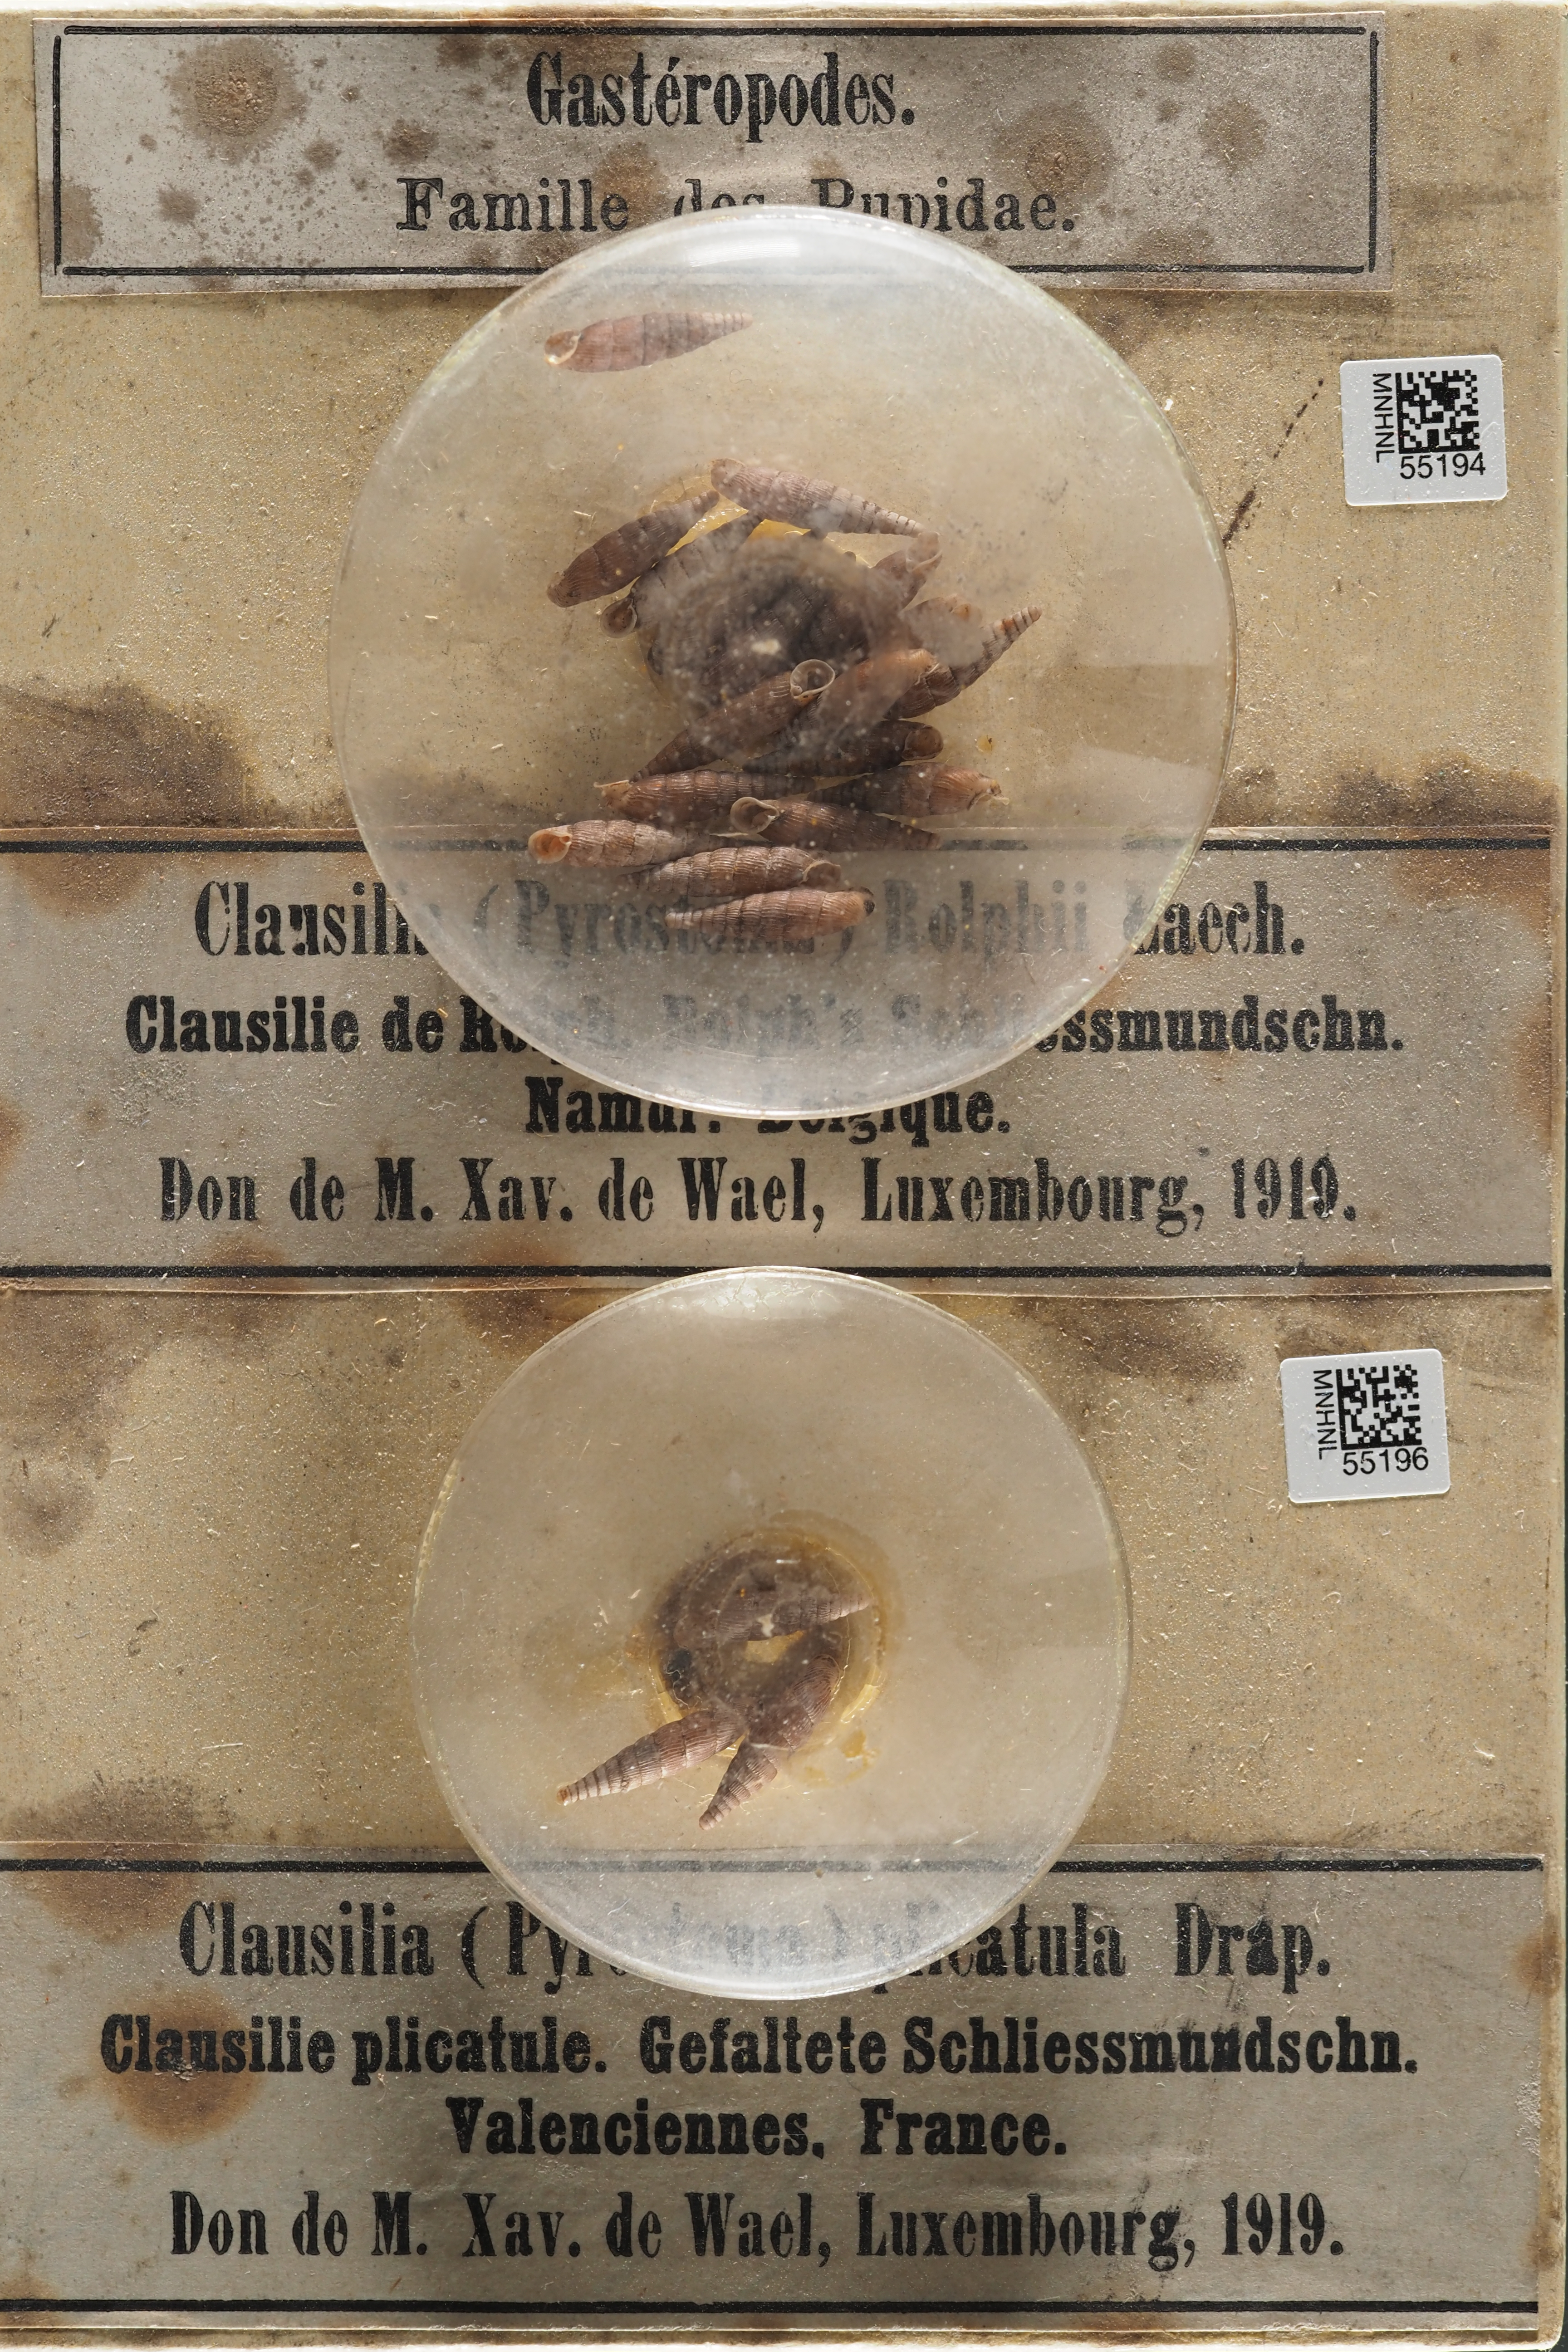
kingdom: Animalia
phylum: Mollusca
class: Gastropoda
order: Stylommatophora
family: Clausiliidae
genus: Macrogastra
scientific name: Macrogastra rolphii
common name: Rolph's door snail
